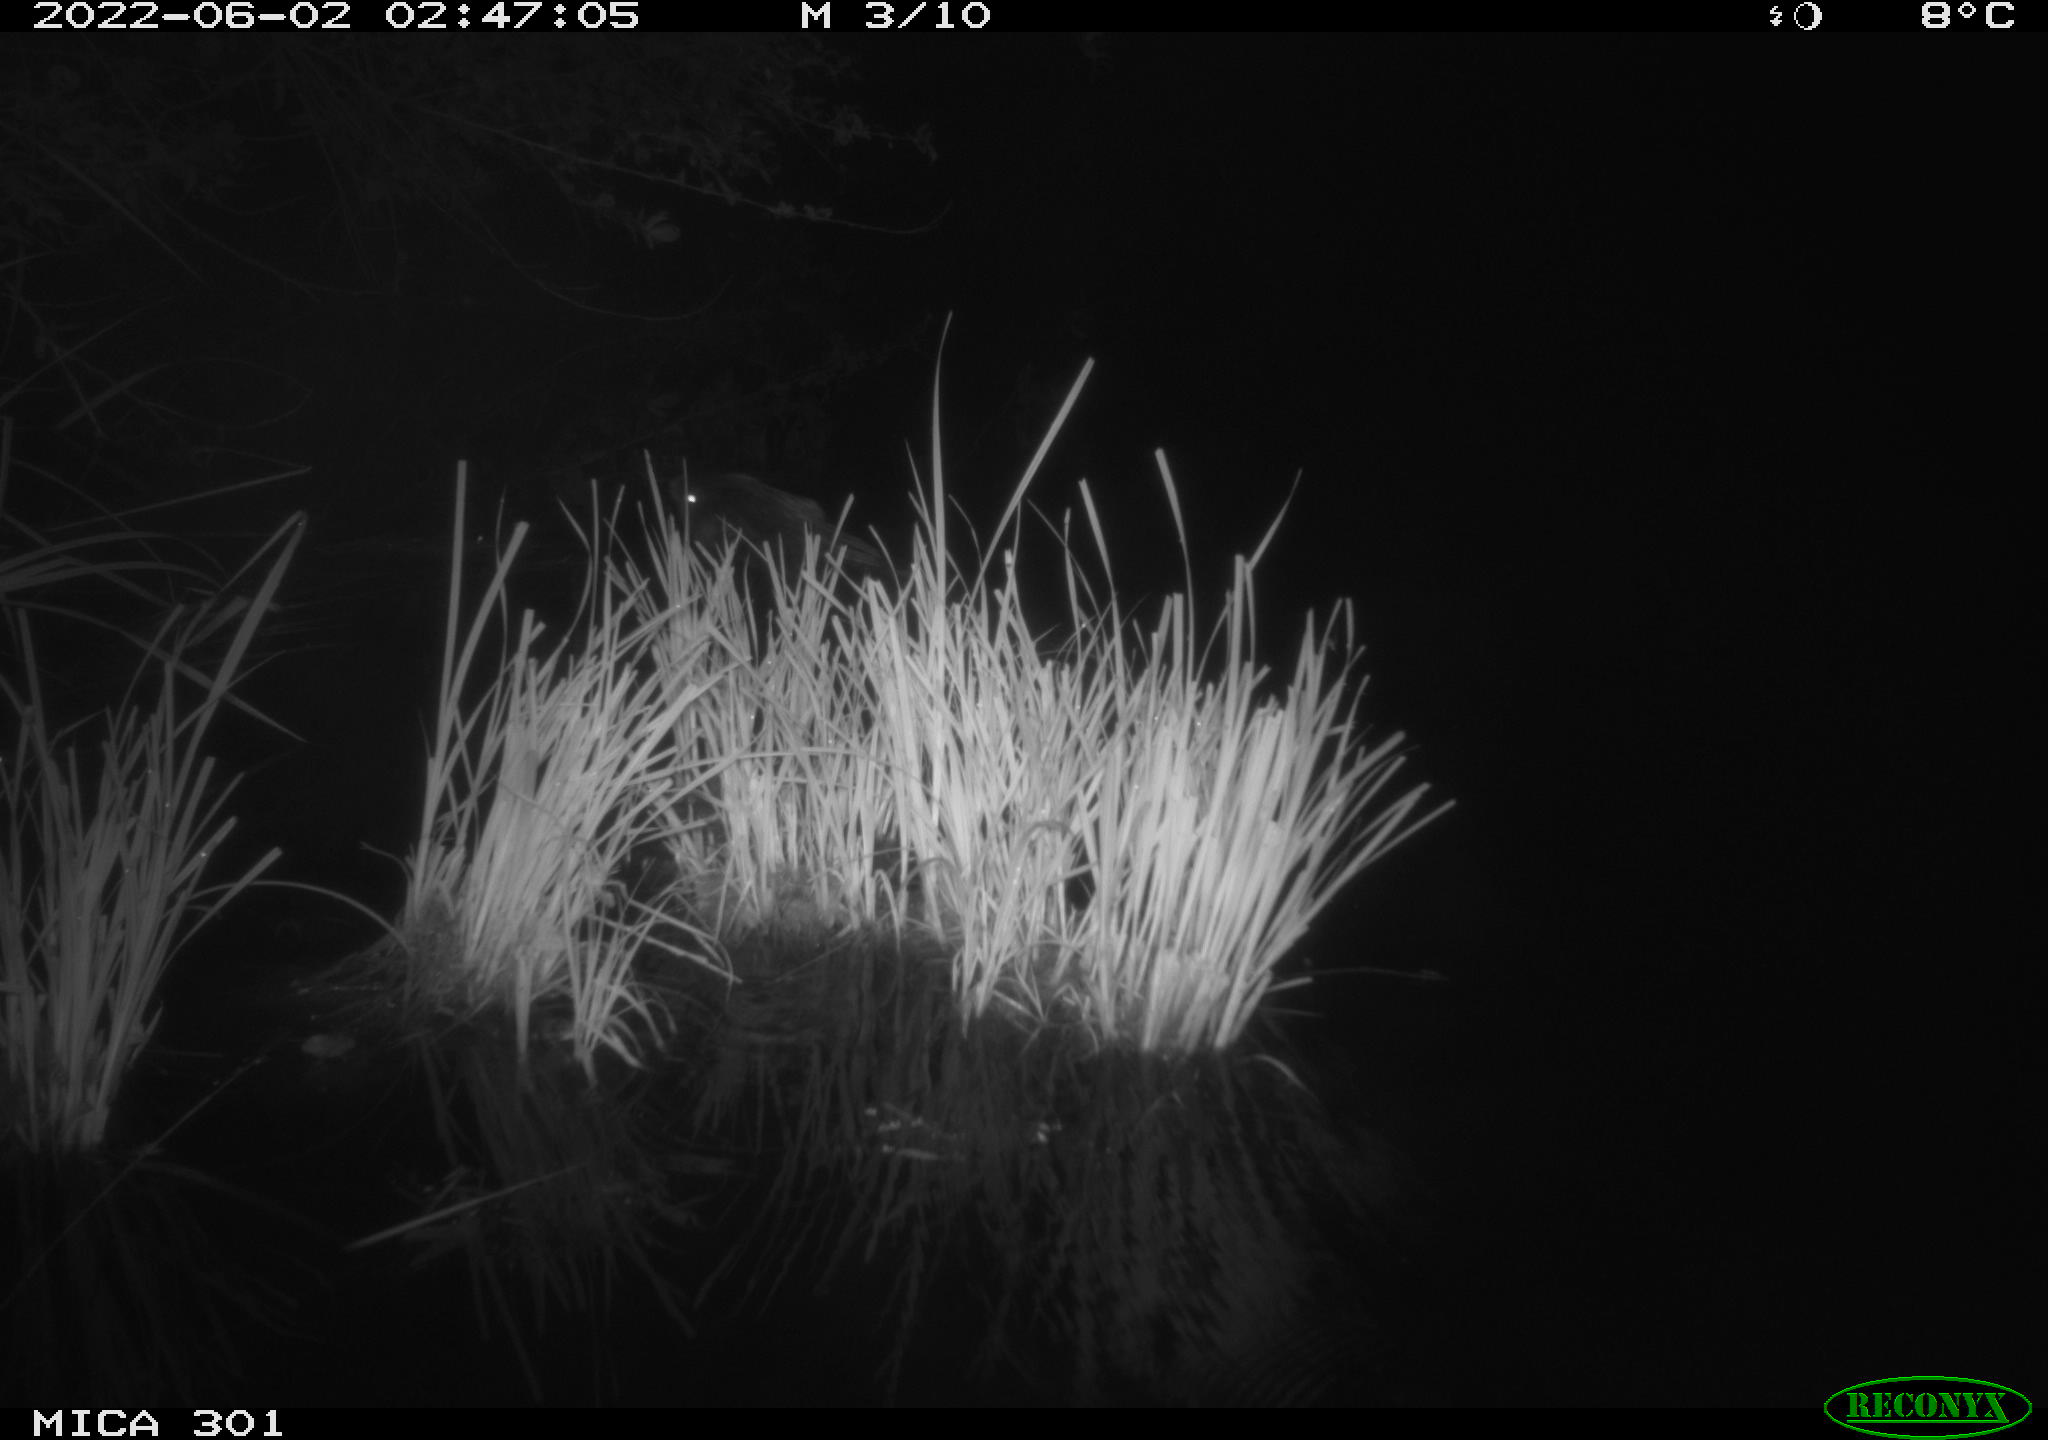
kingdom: Animalia
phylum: Chordata
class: Mammalia
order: Rodentia
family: Castoridae
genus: Castor
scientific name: Castor fiber
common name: Eurasian beaver
